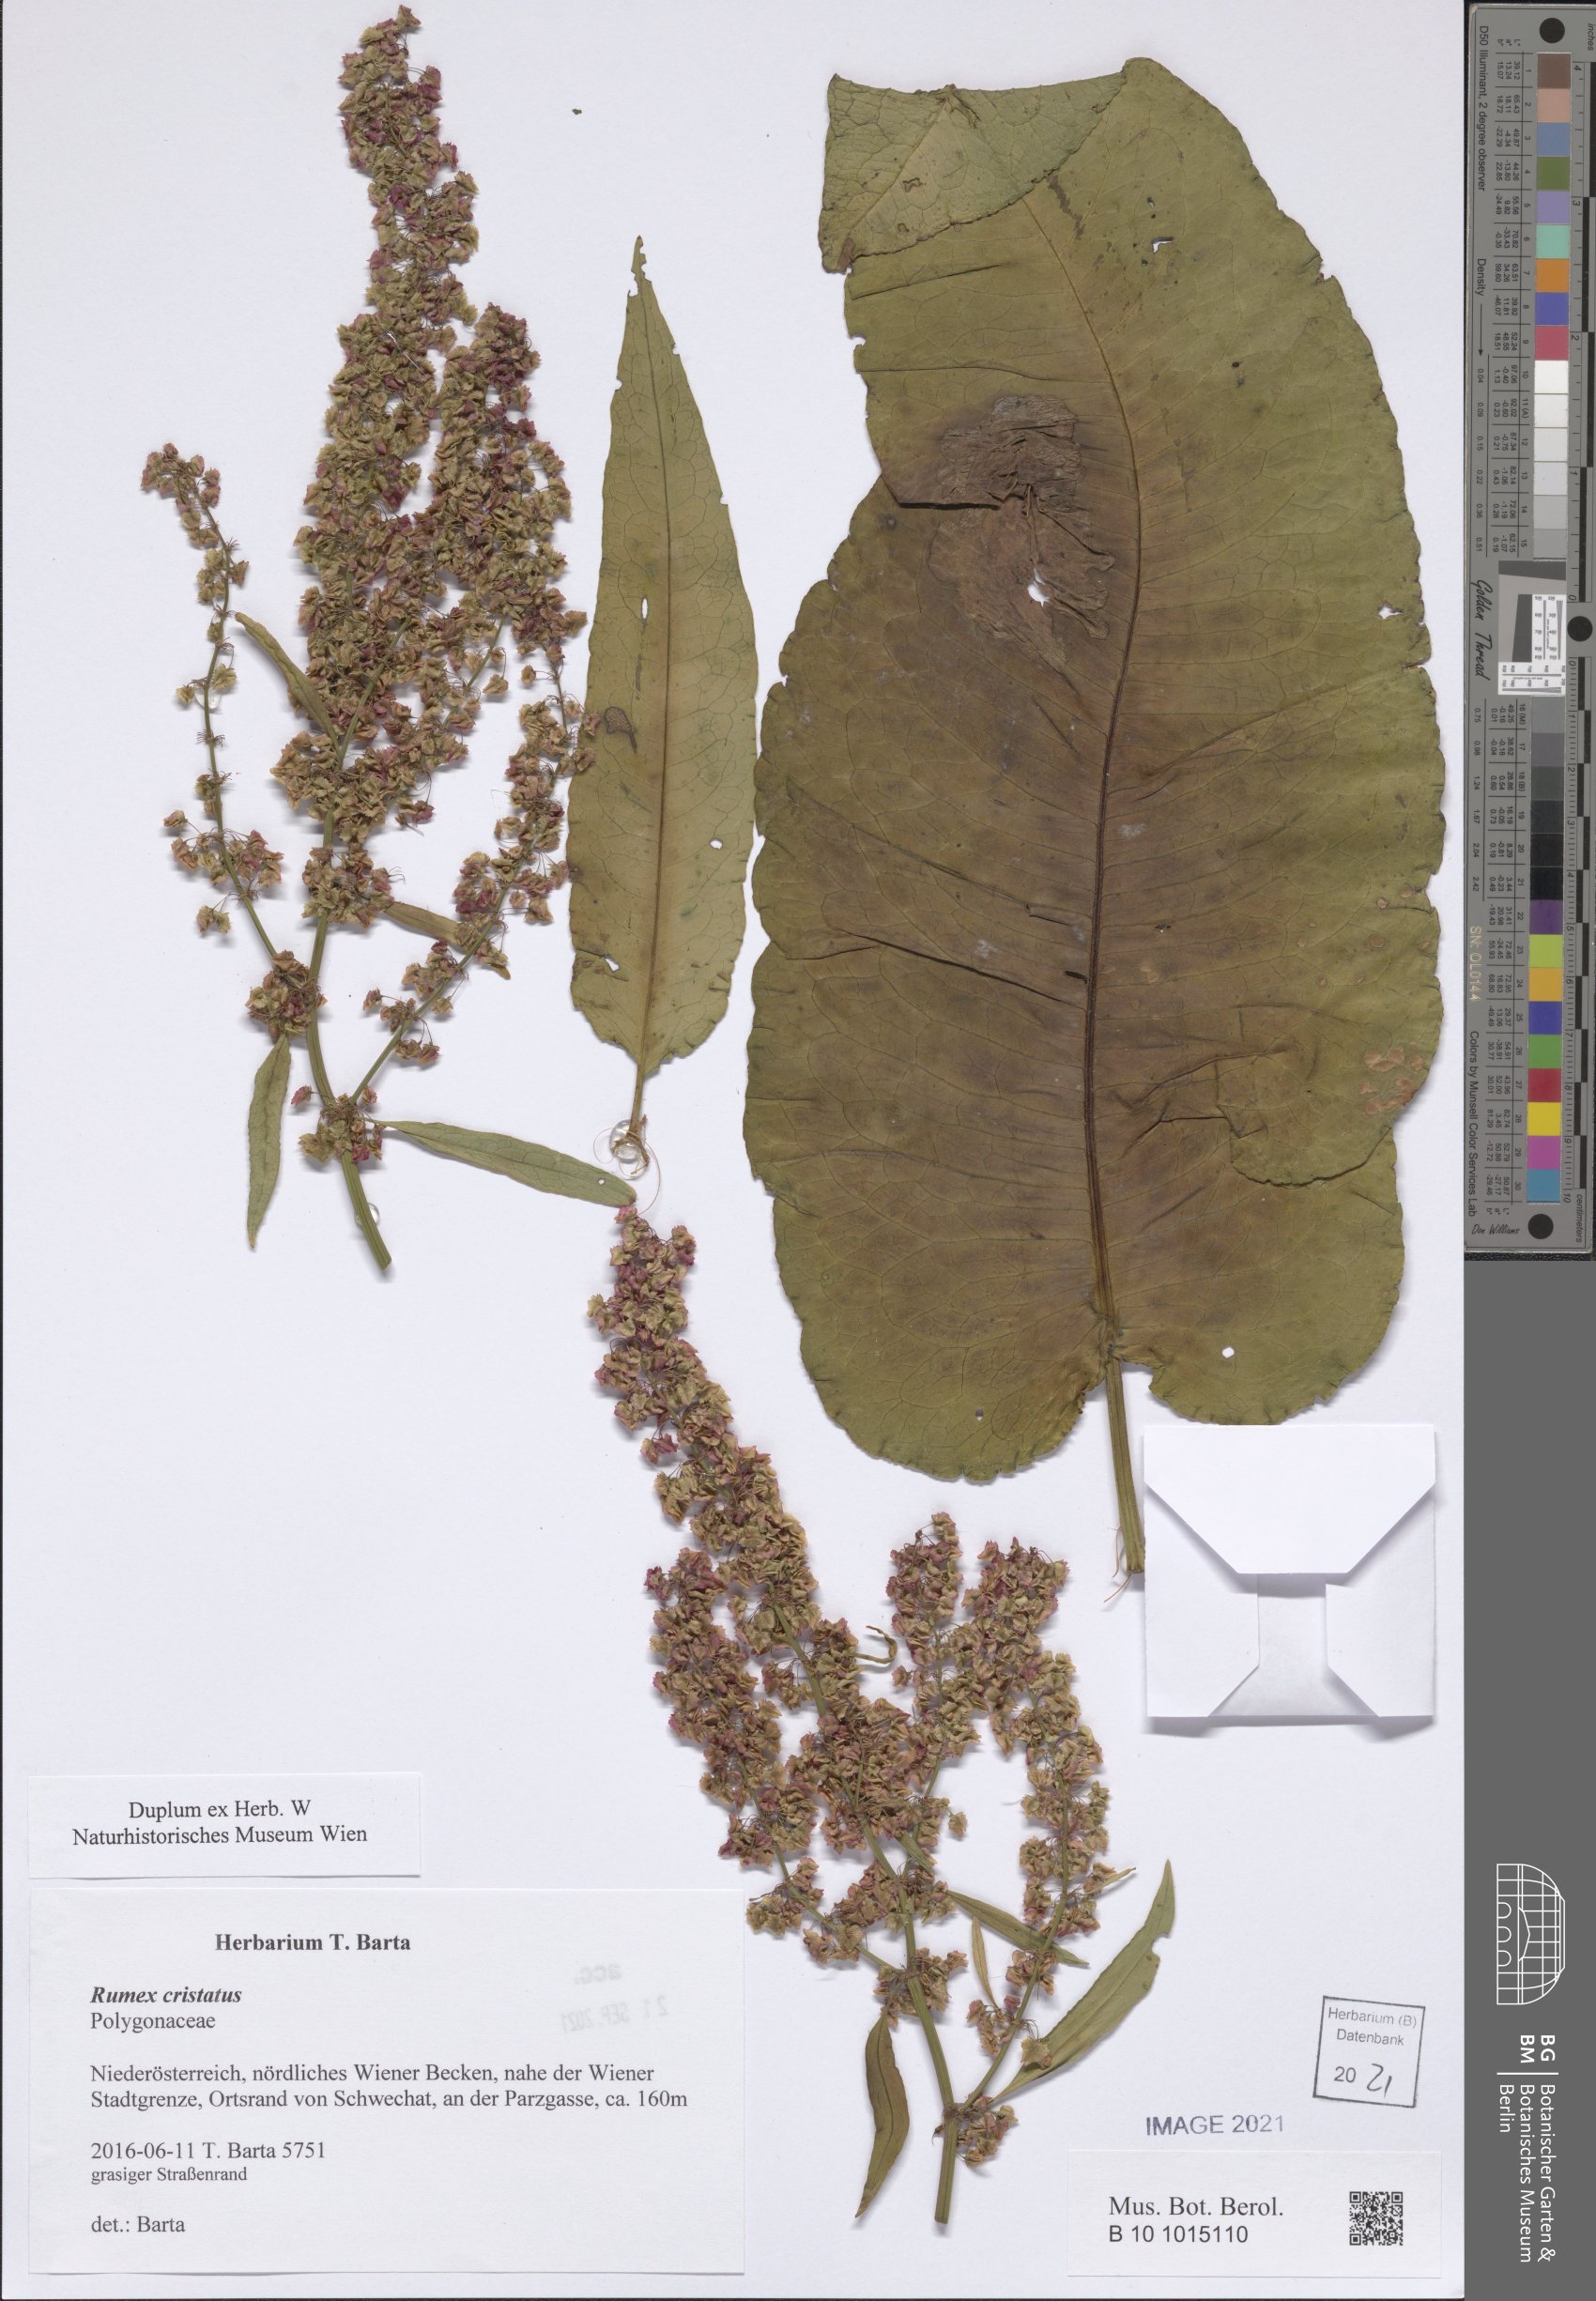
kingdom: Plantae
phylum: Tracheophyta
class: Magnoliopsida
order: Caryophyllales
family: Polygonaceae
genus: Rumex
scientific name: Rumex cristatus
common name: Greek dock
